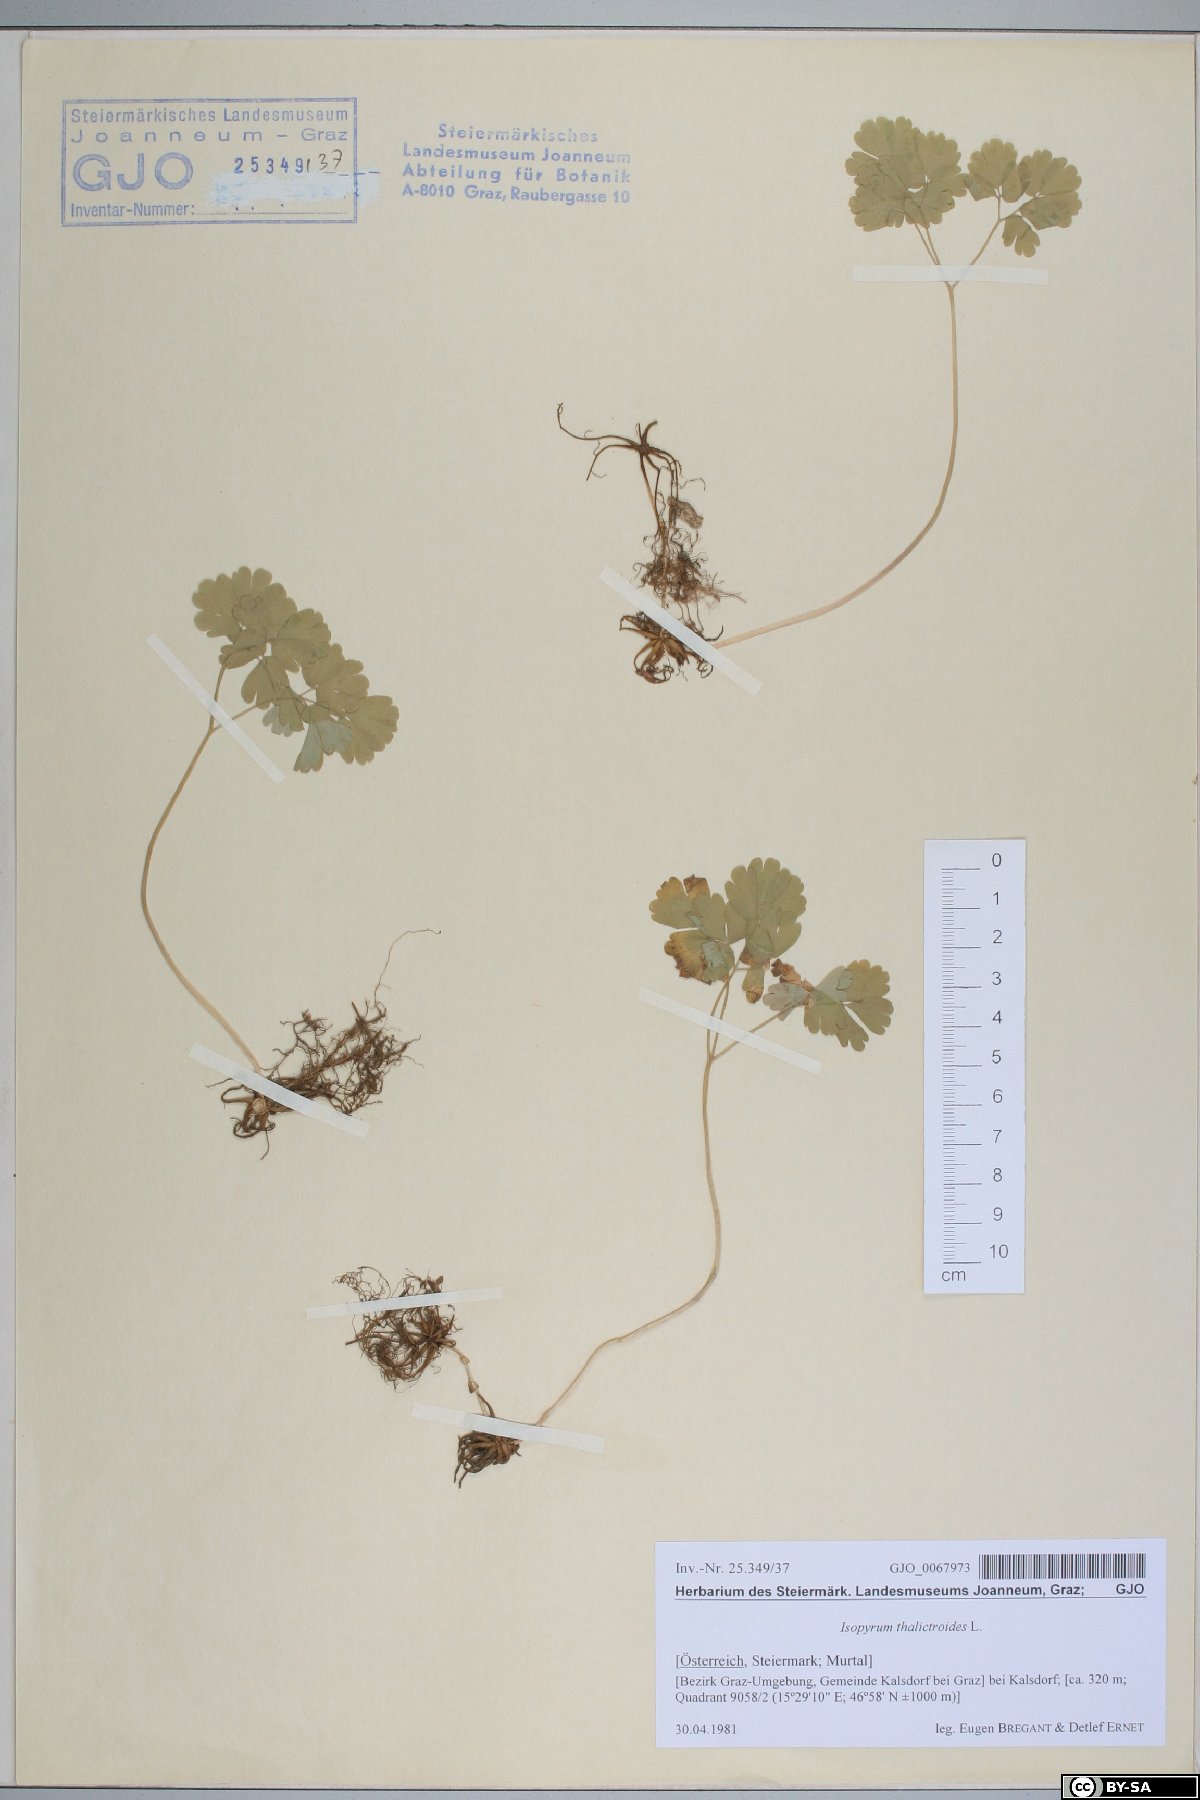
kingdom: Plantae
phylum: Tracheophyta
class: Magnoliopsida
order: Ranunculales
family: Ranunculaceae
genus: Isopyrum
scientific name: Isopyrum thalictroides
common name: Isopyrum
